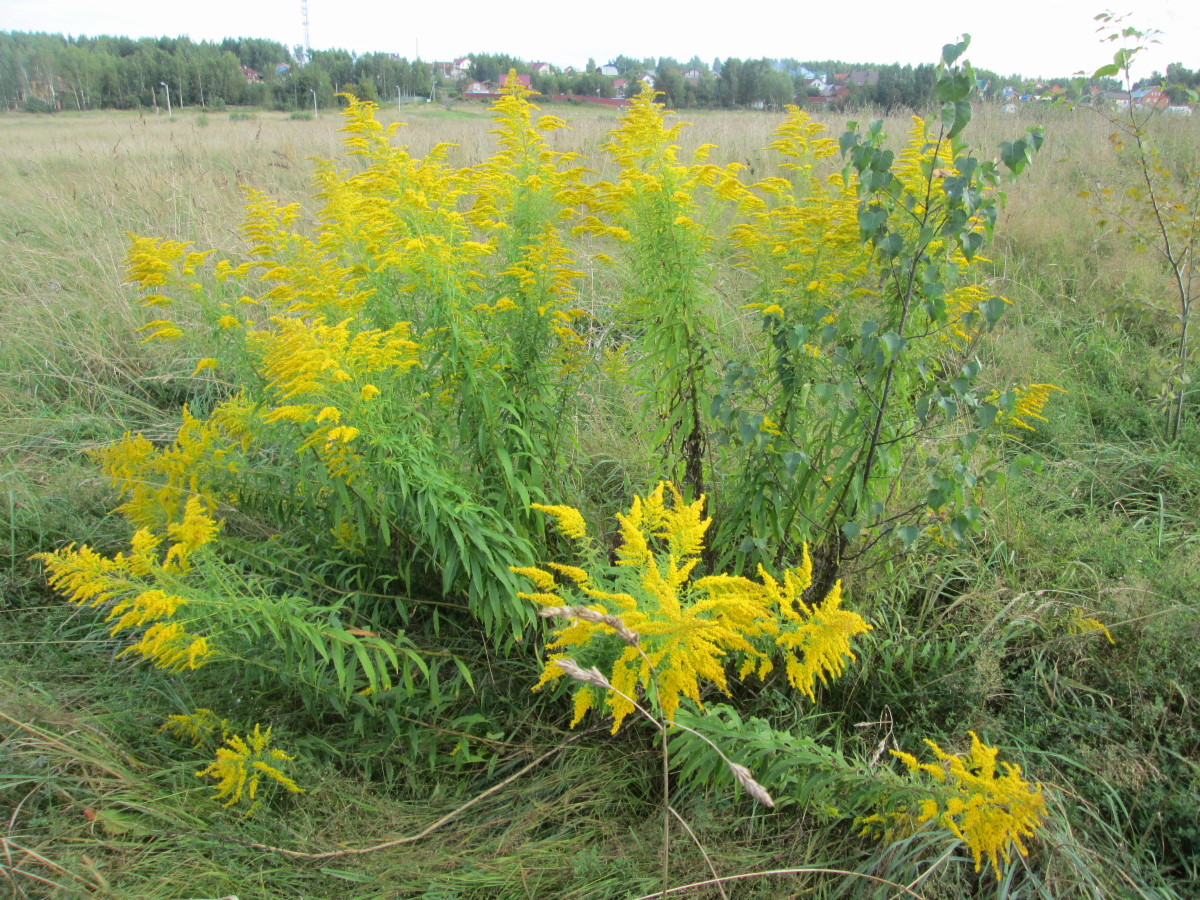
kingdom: Plantae
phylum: Tracheophyta
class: Magnoliopsida
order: Asterales
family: Asteraceae
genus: Solidago
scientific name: Solidago canadensis
